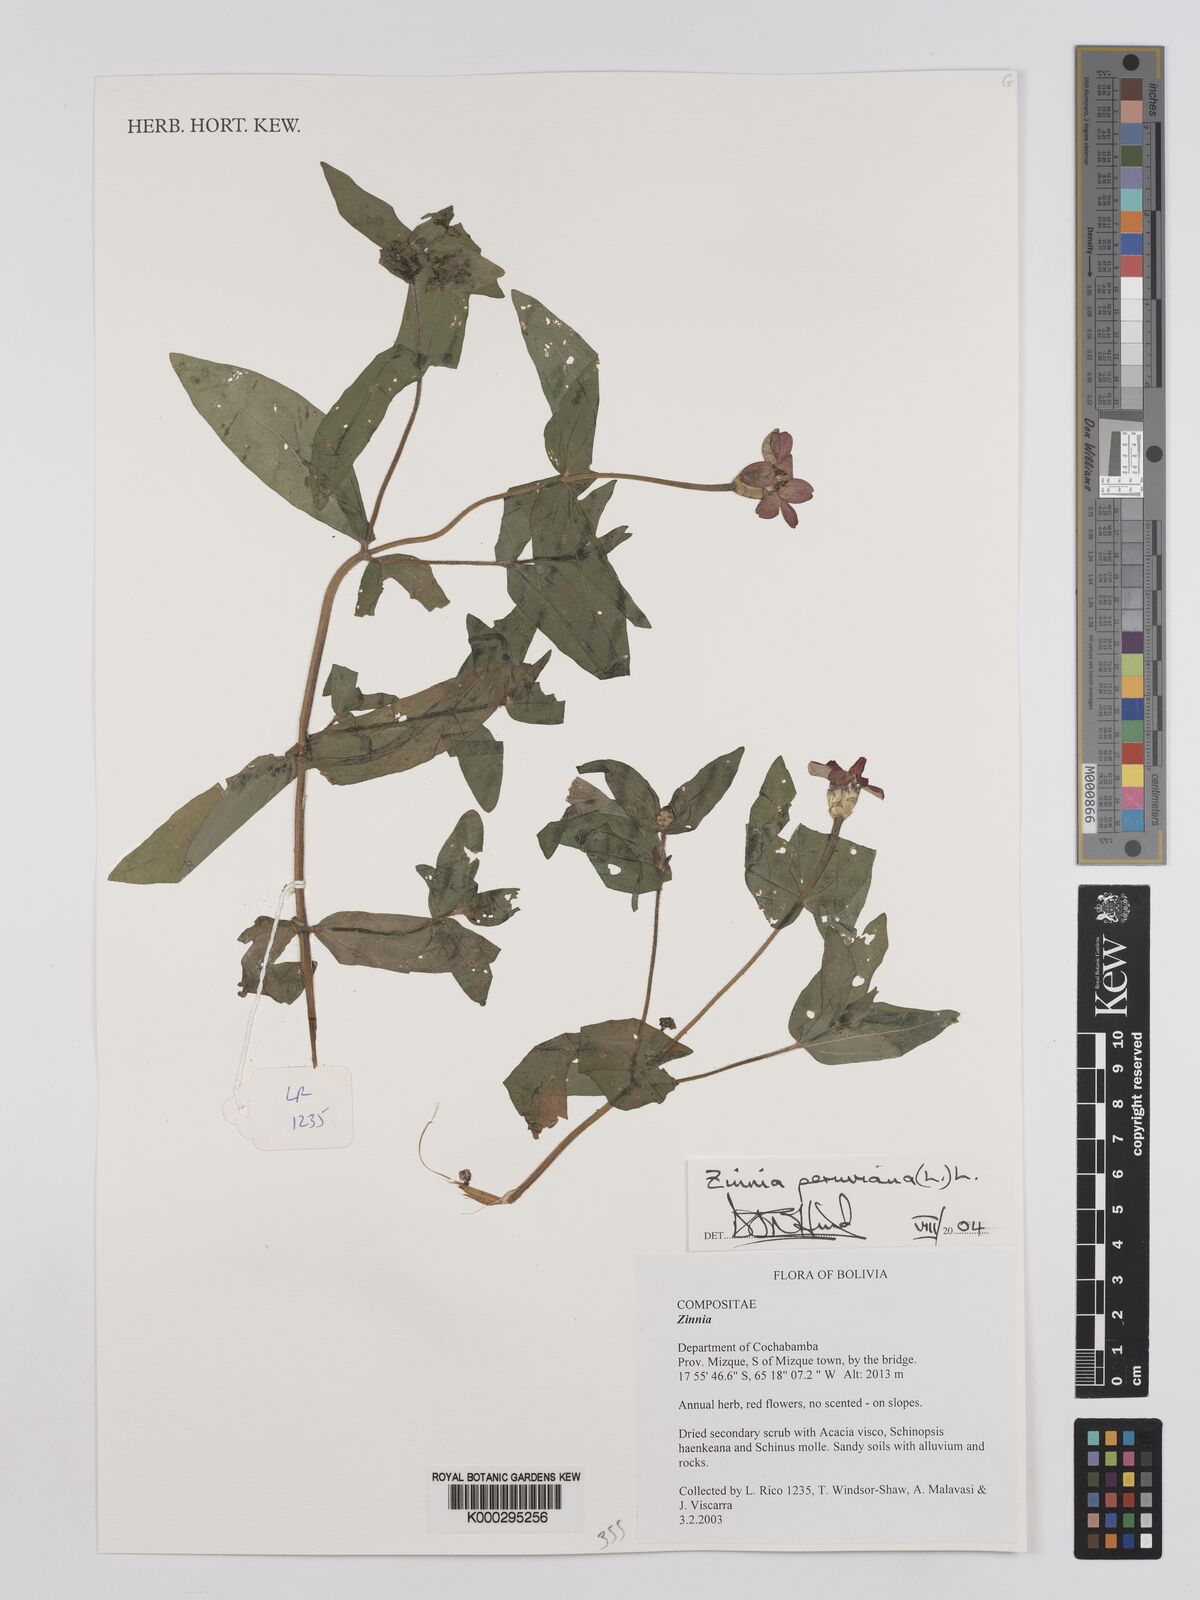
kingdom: Plantae
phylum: Tracheophyta
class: Magnoliopsida
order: Asterales
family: Asteraceae
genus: Zinnia
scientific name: Zinnia peruviana
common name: Peruvian zinnia
